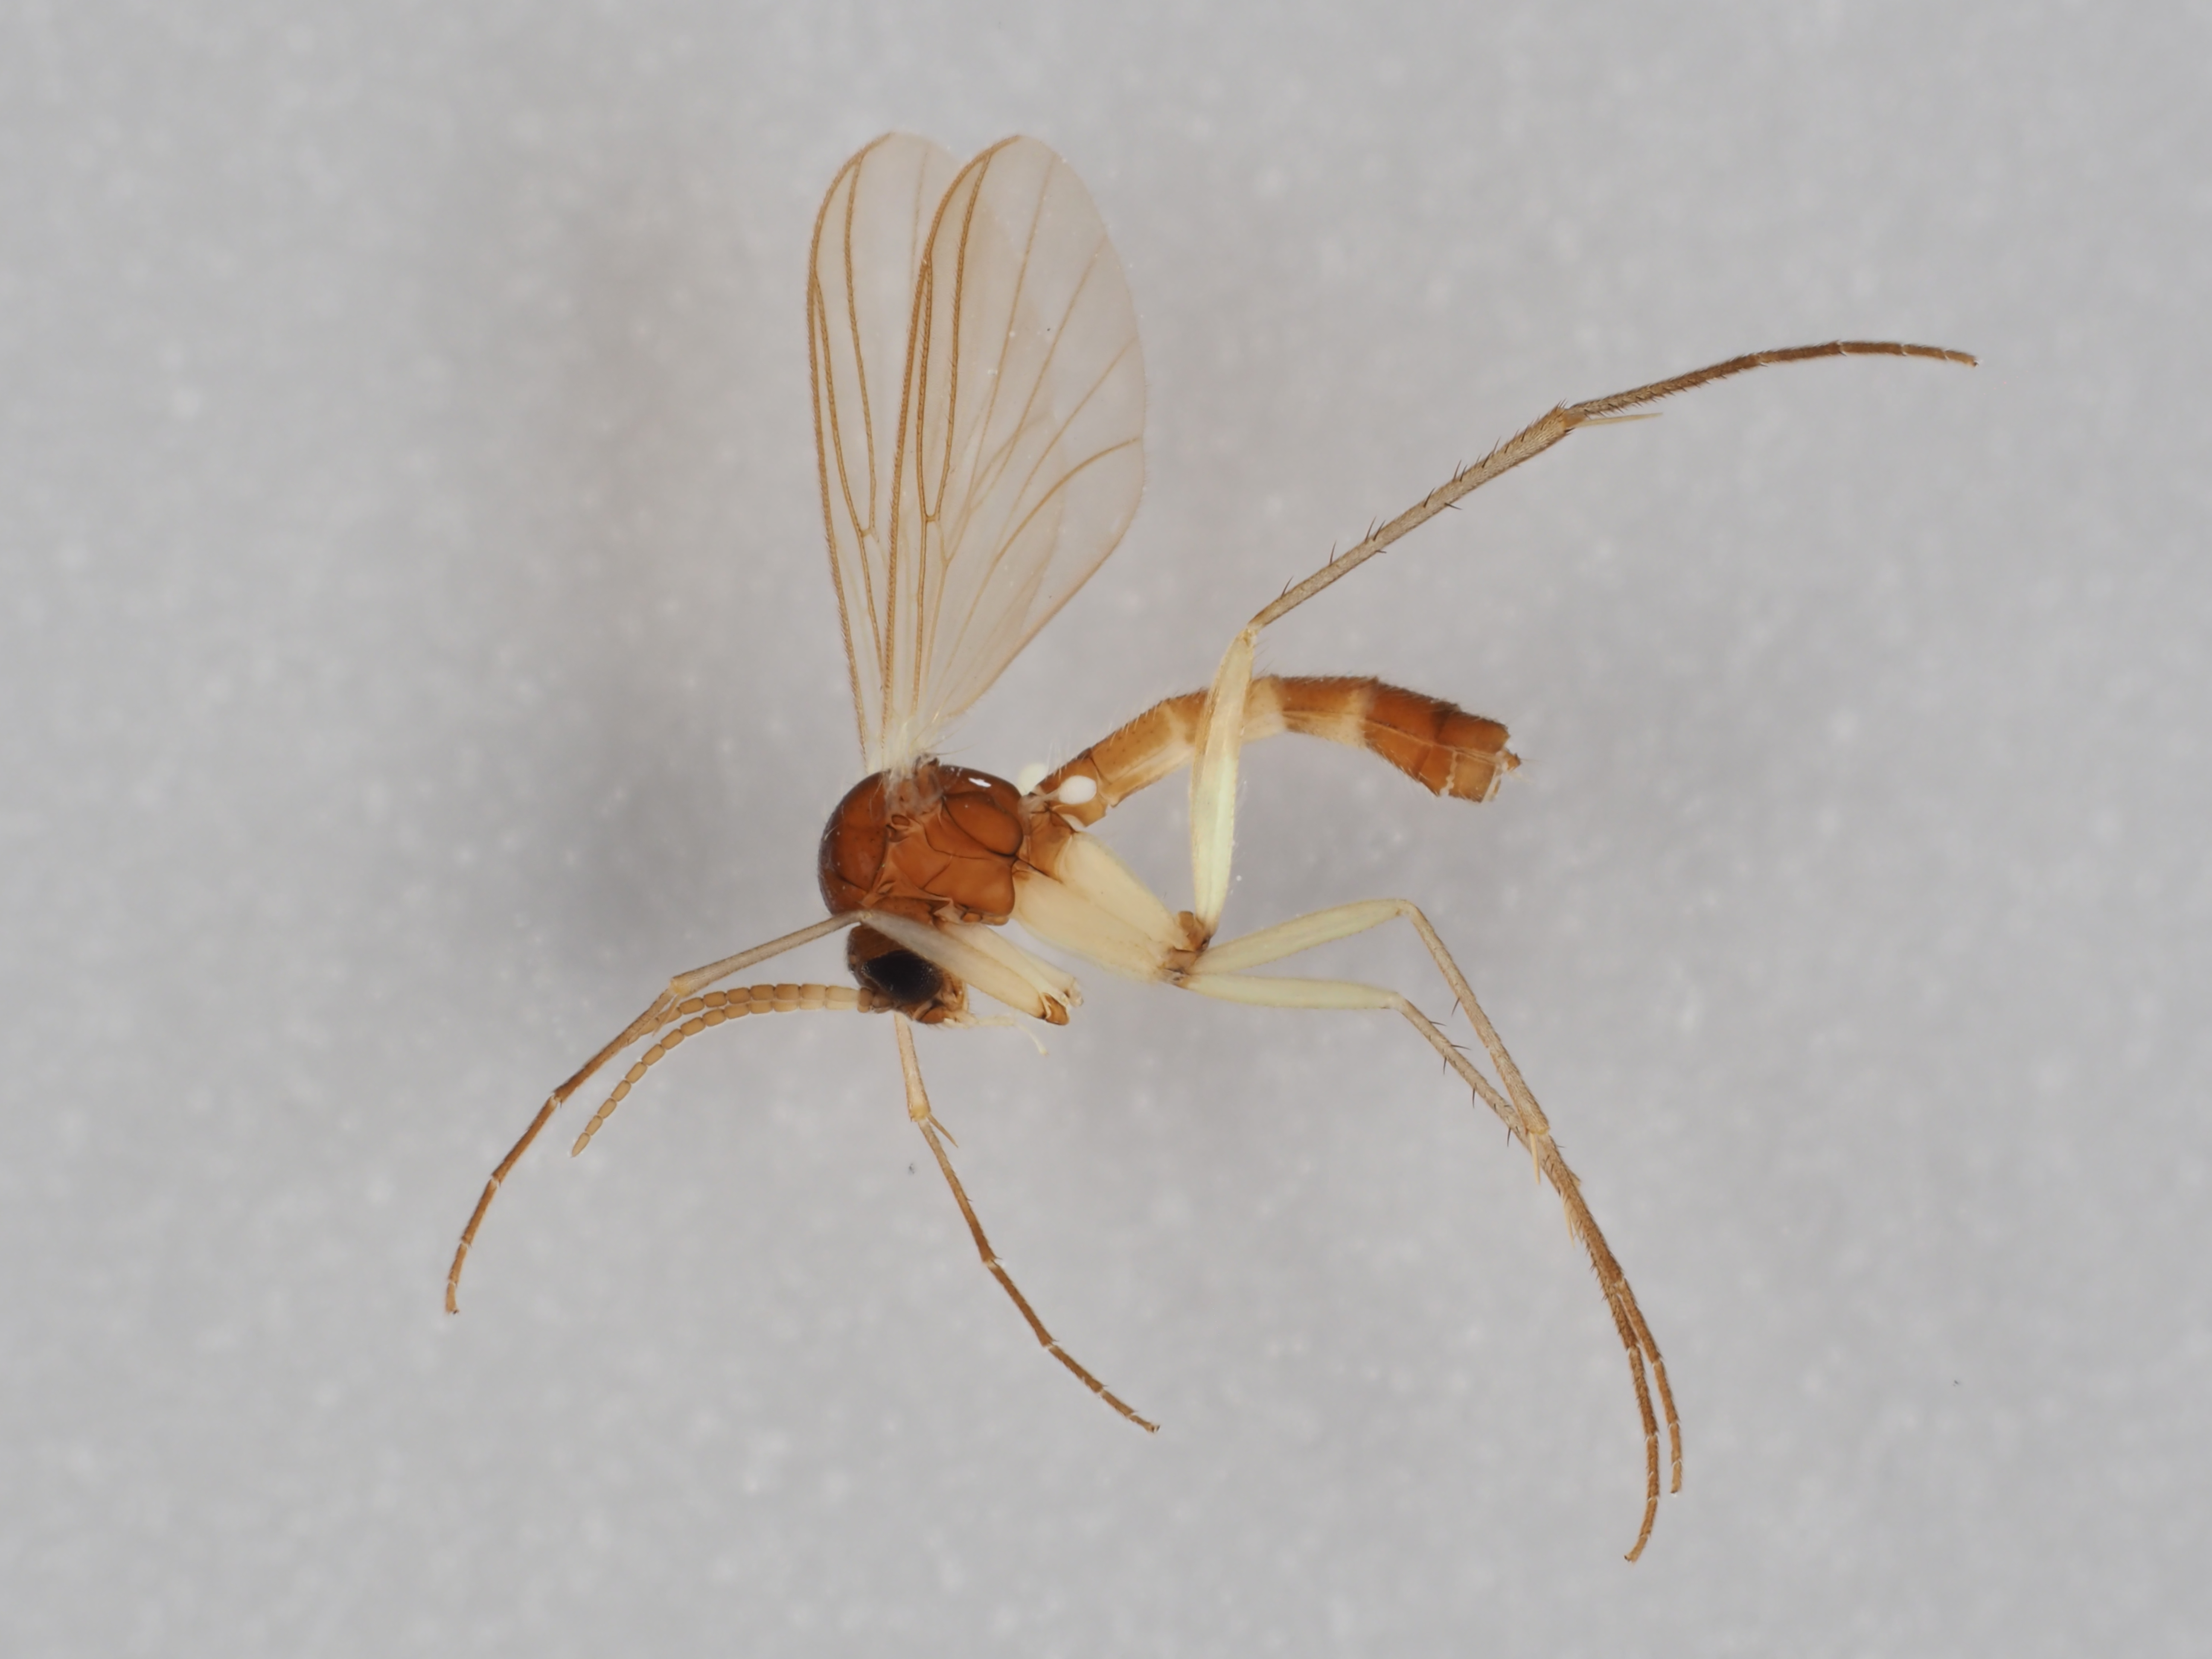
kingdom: Animalia
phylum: Arthropoda
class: Insecta
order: Diptera
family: Mycetophilidae
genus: Boletina
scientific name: Boletina gusakovae
